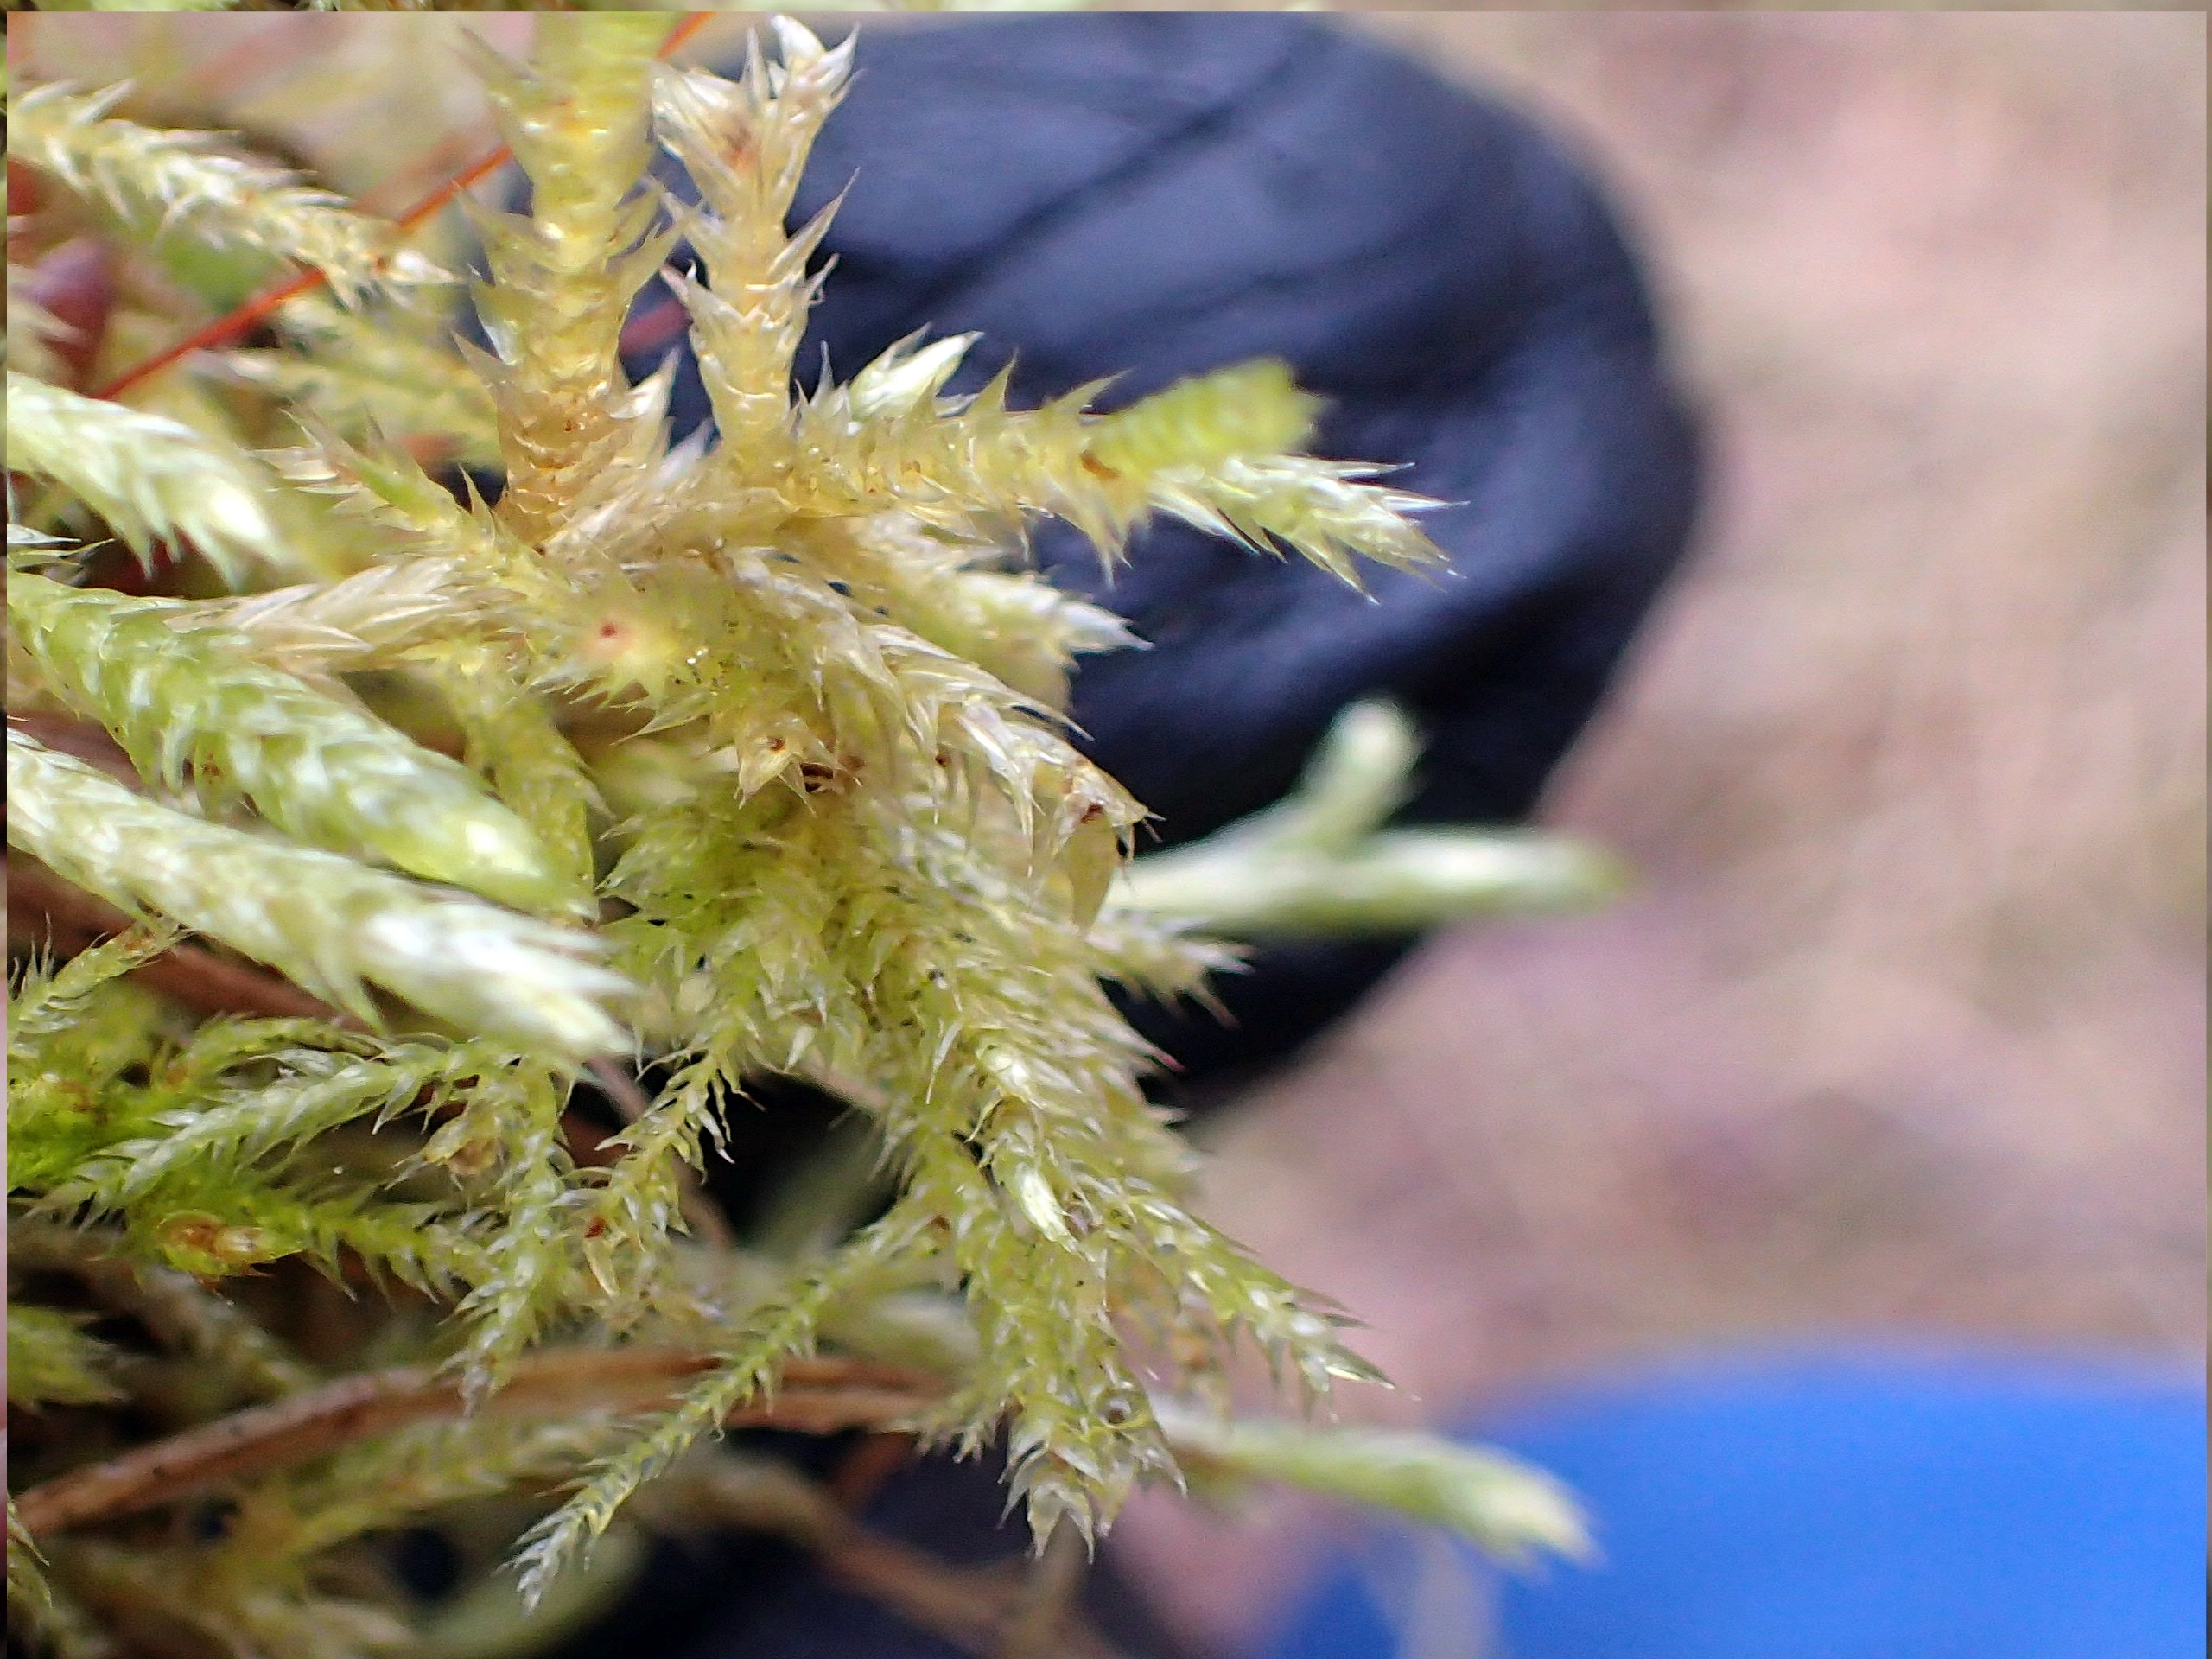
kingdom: Plantae
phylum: Bryophyta
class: Bryopsida
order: Hypnales
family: Brachytheciaceae
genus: Brachythecium
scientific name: Brachythecium
